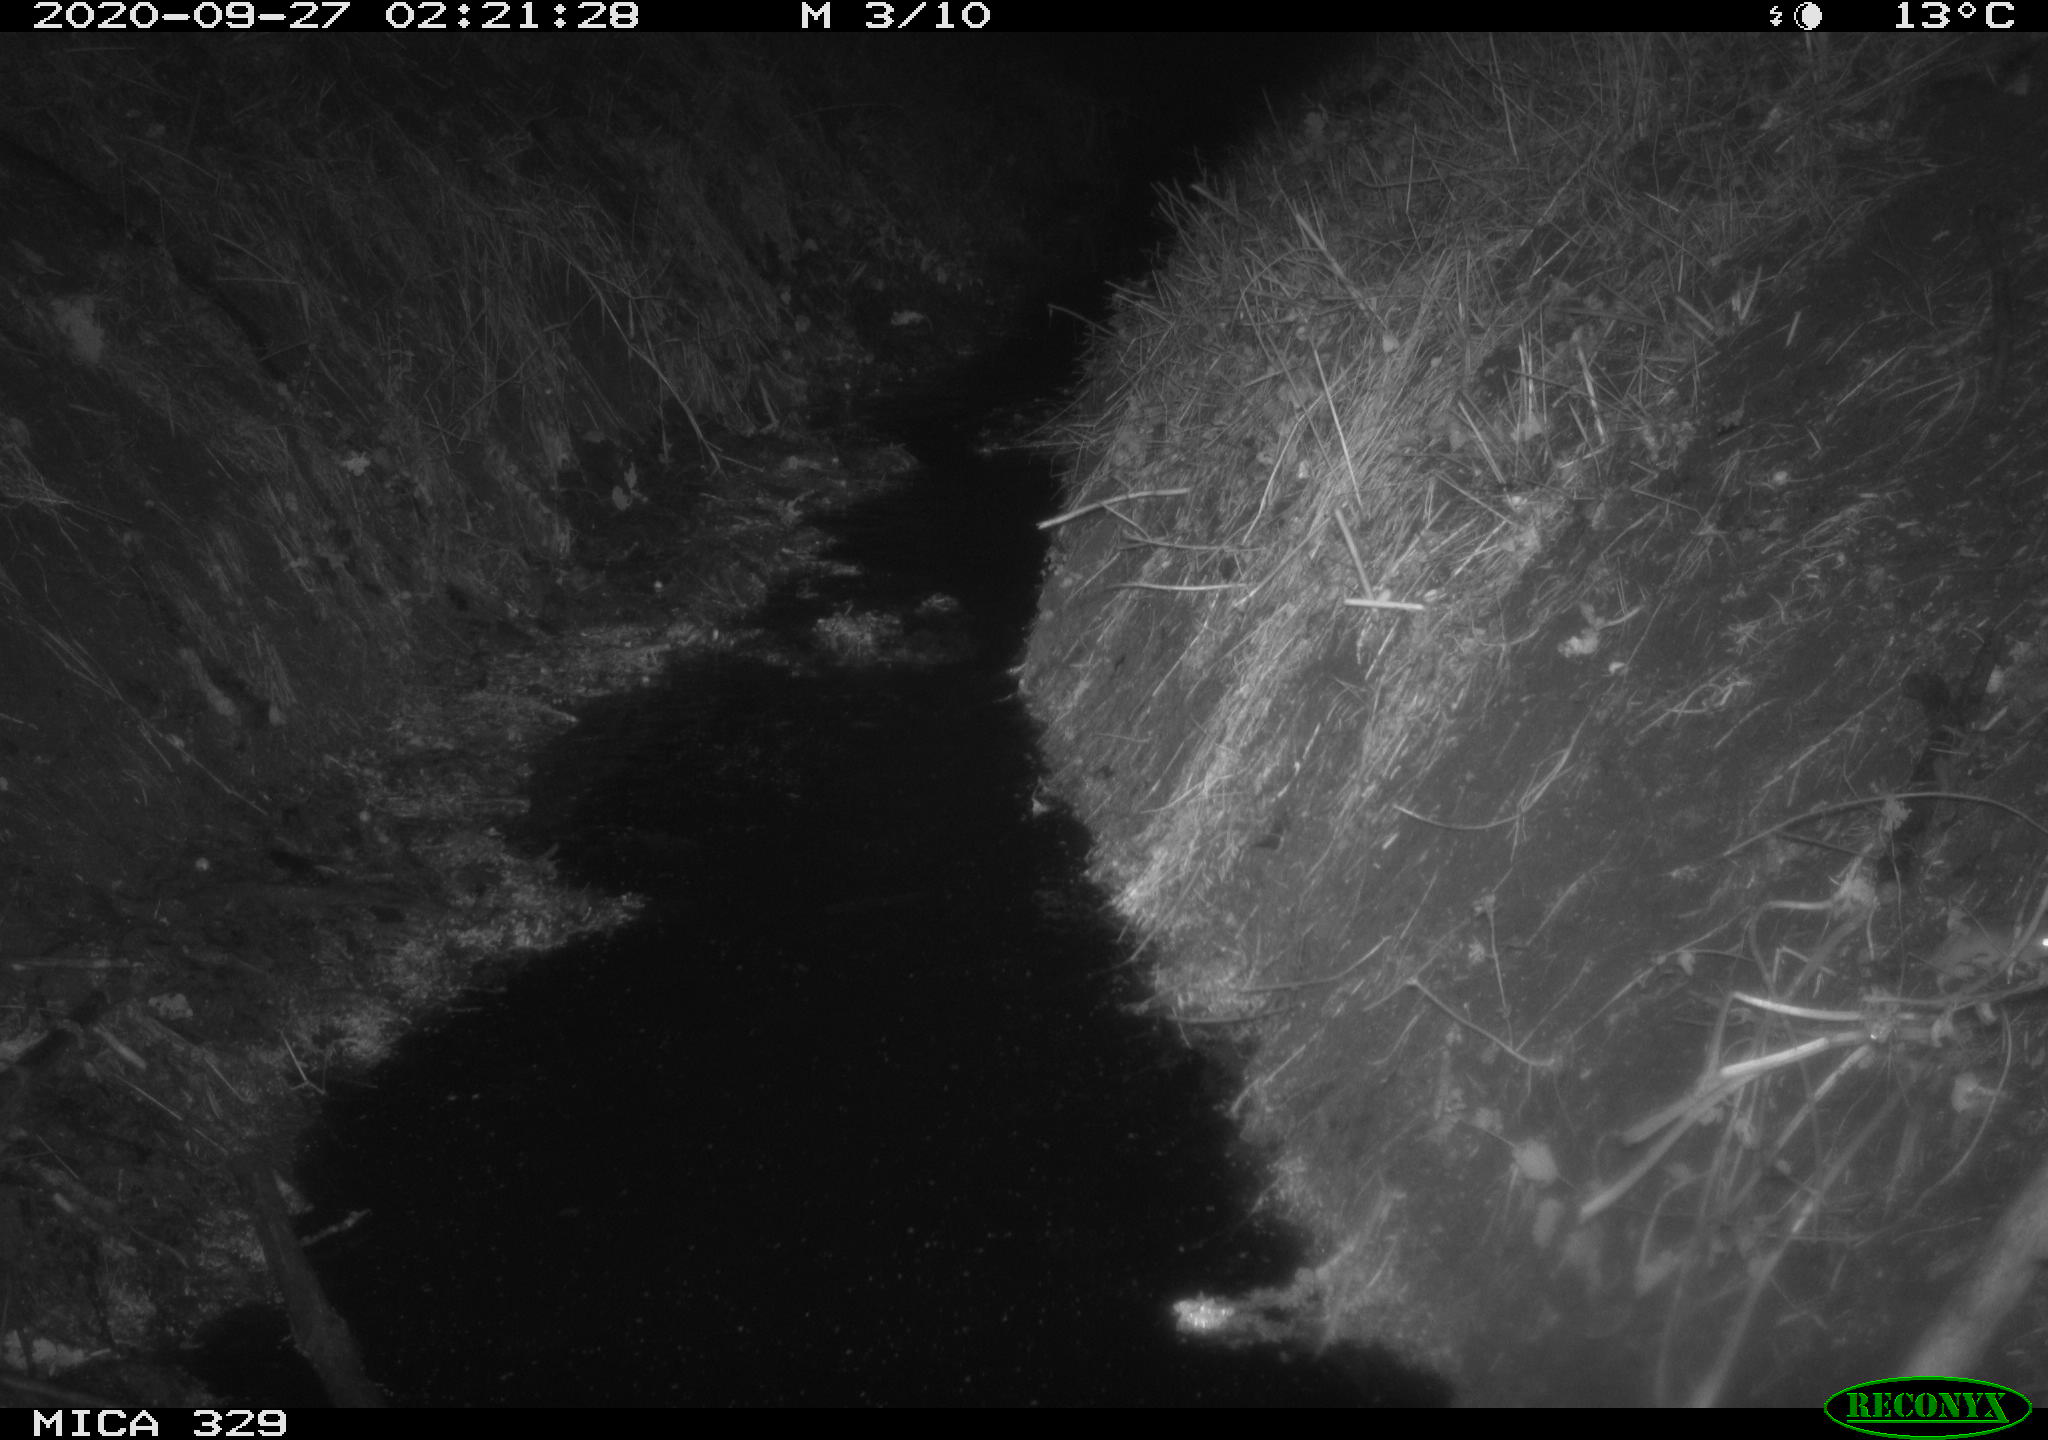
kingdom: Animalia
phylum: Chordata
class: Mammalia
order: Rodentia
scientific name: Rodentia
